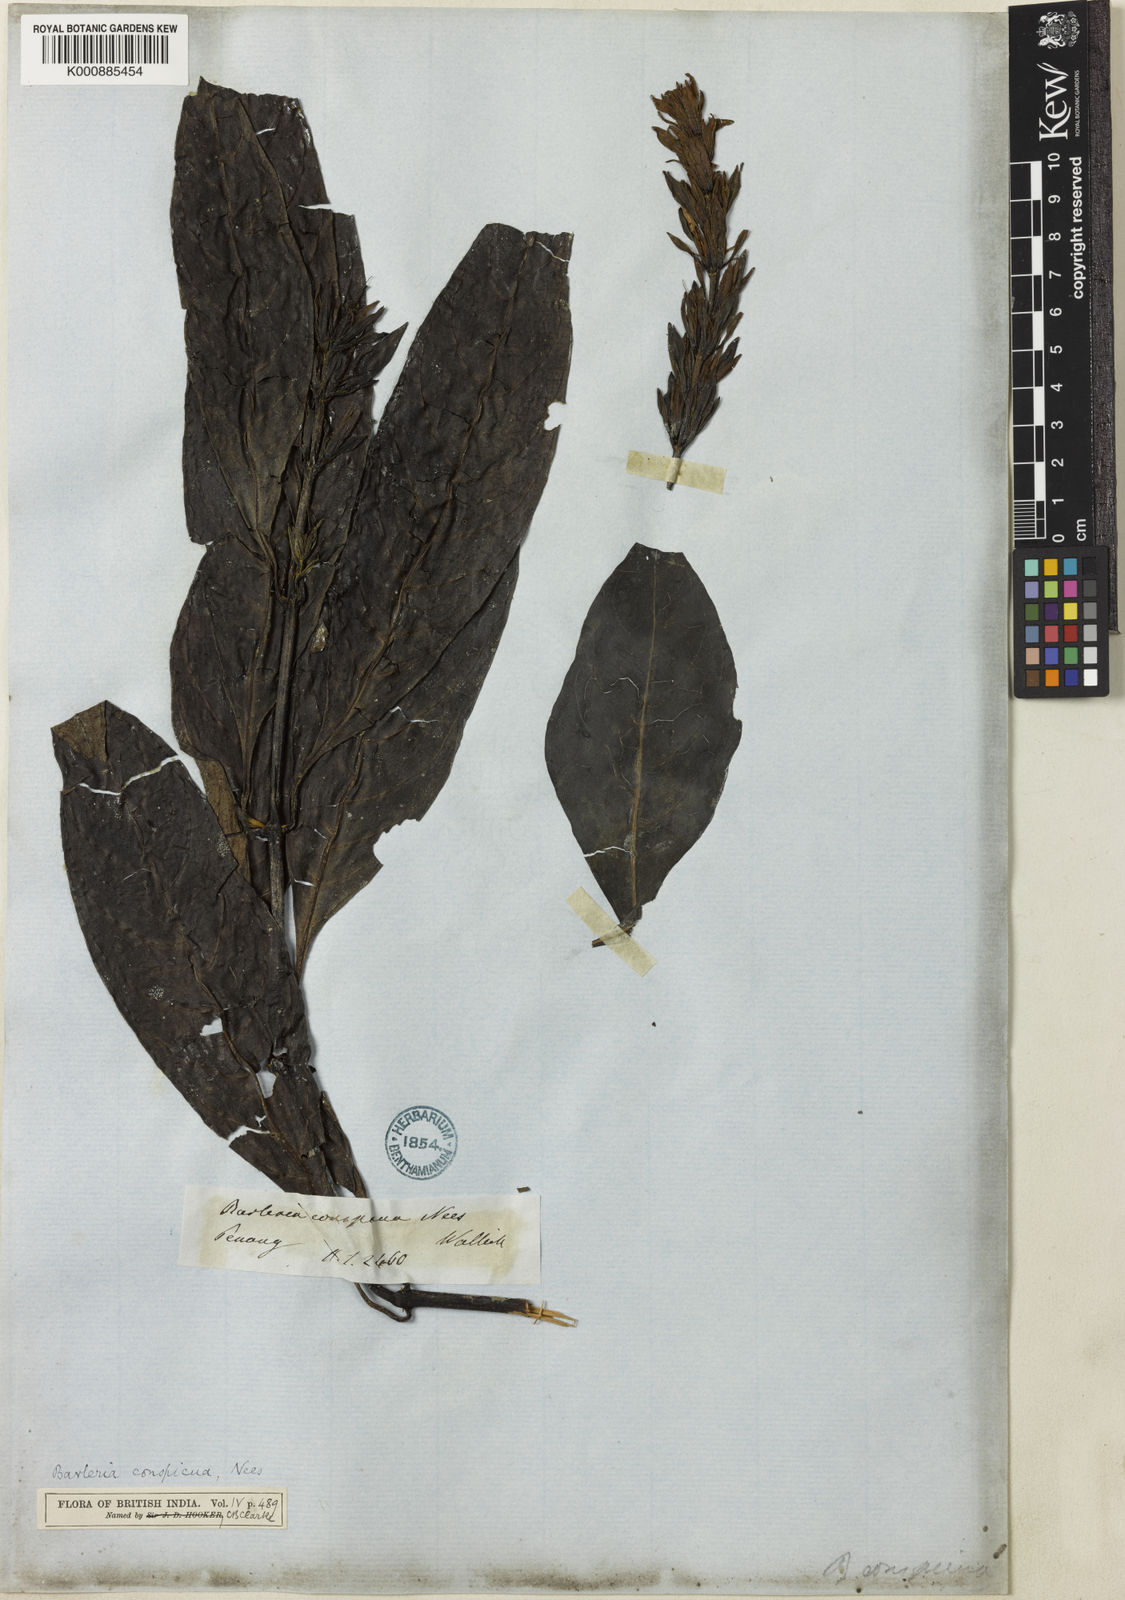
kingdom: Plantae
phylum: Tracheophyta
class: Magnoliopsida
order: Lamiales
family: Acanthaceae
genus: Barleria
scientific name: Barleria conspicua
